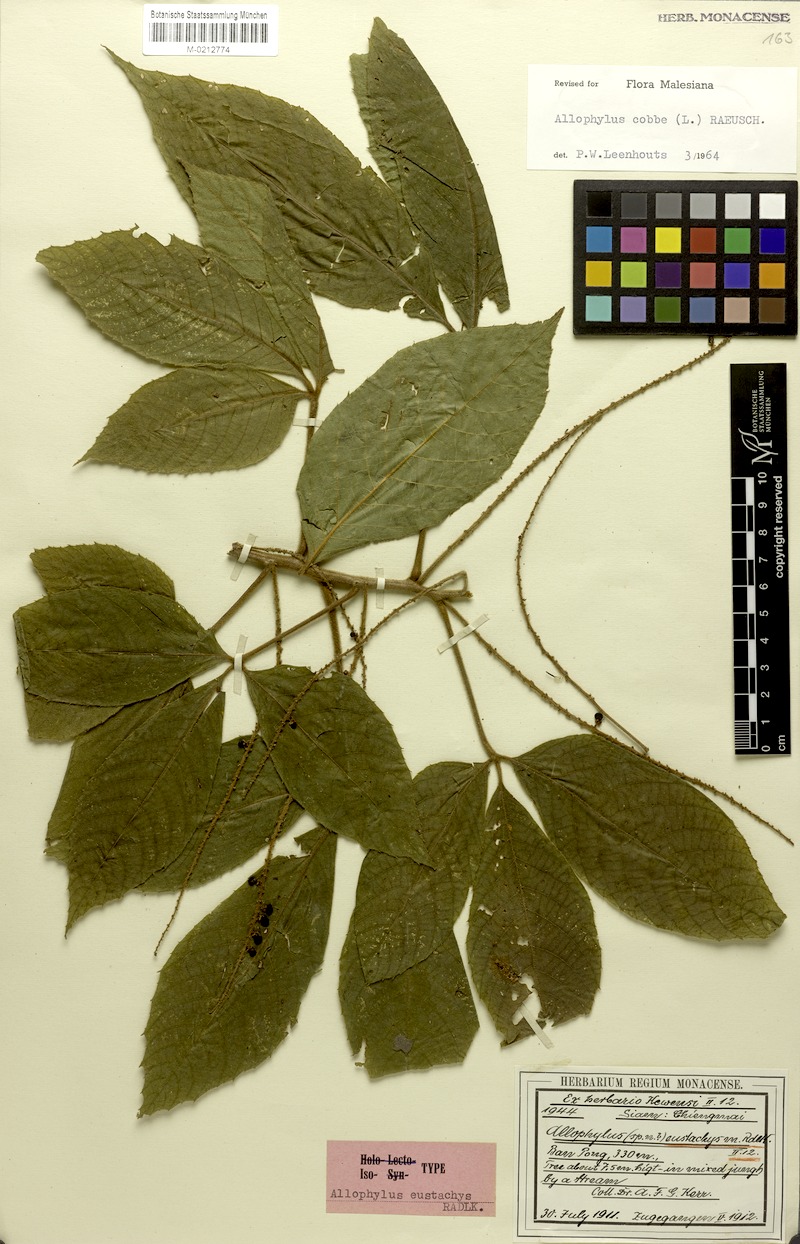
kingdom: Plantae
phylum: Tracheophyta
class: Magnoliopsida
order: Sapindales
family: Sapindaceae
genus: Allophylus
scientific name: Allophylus eustachys
